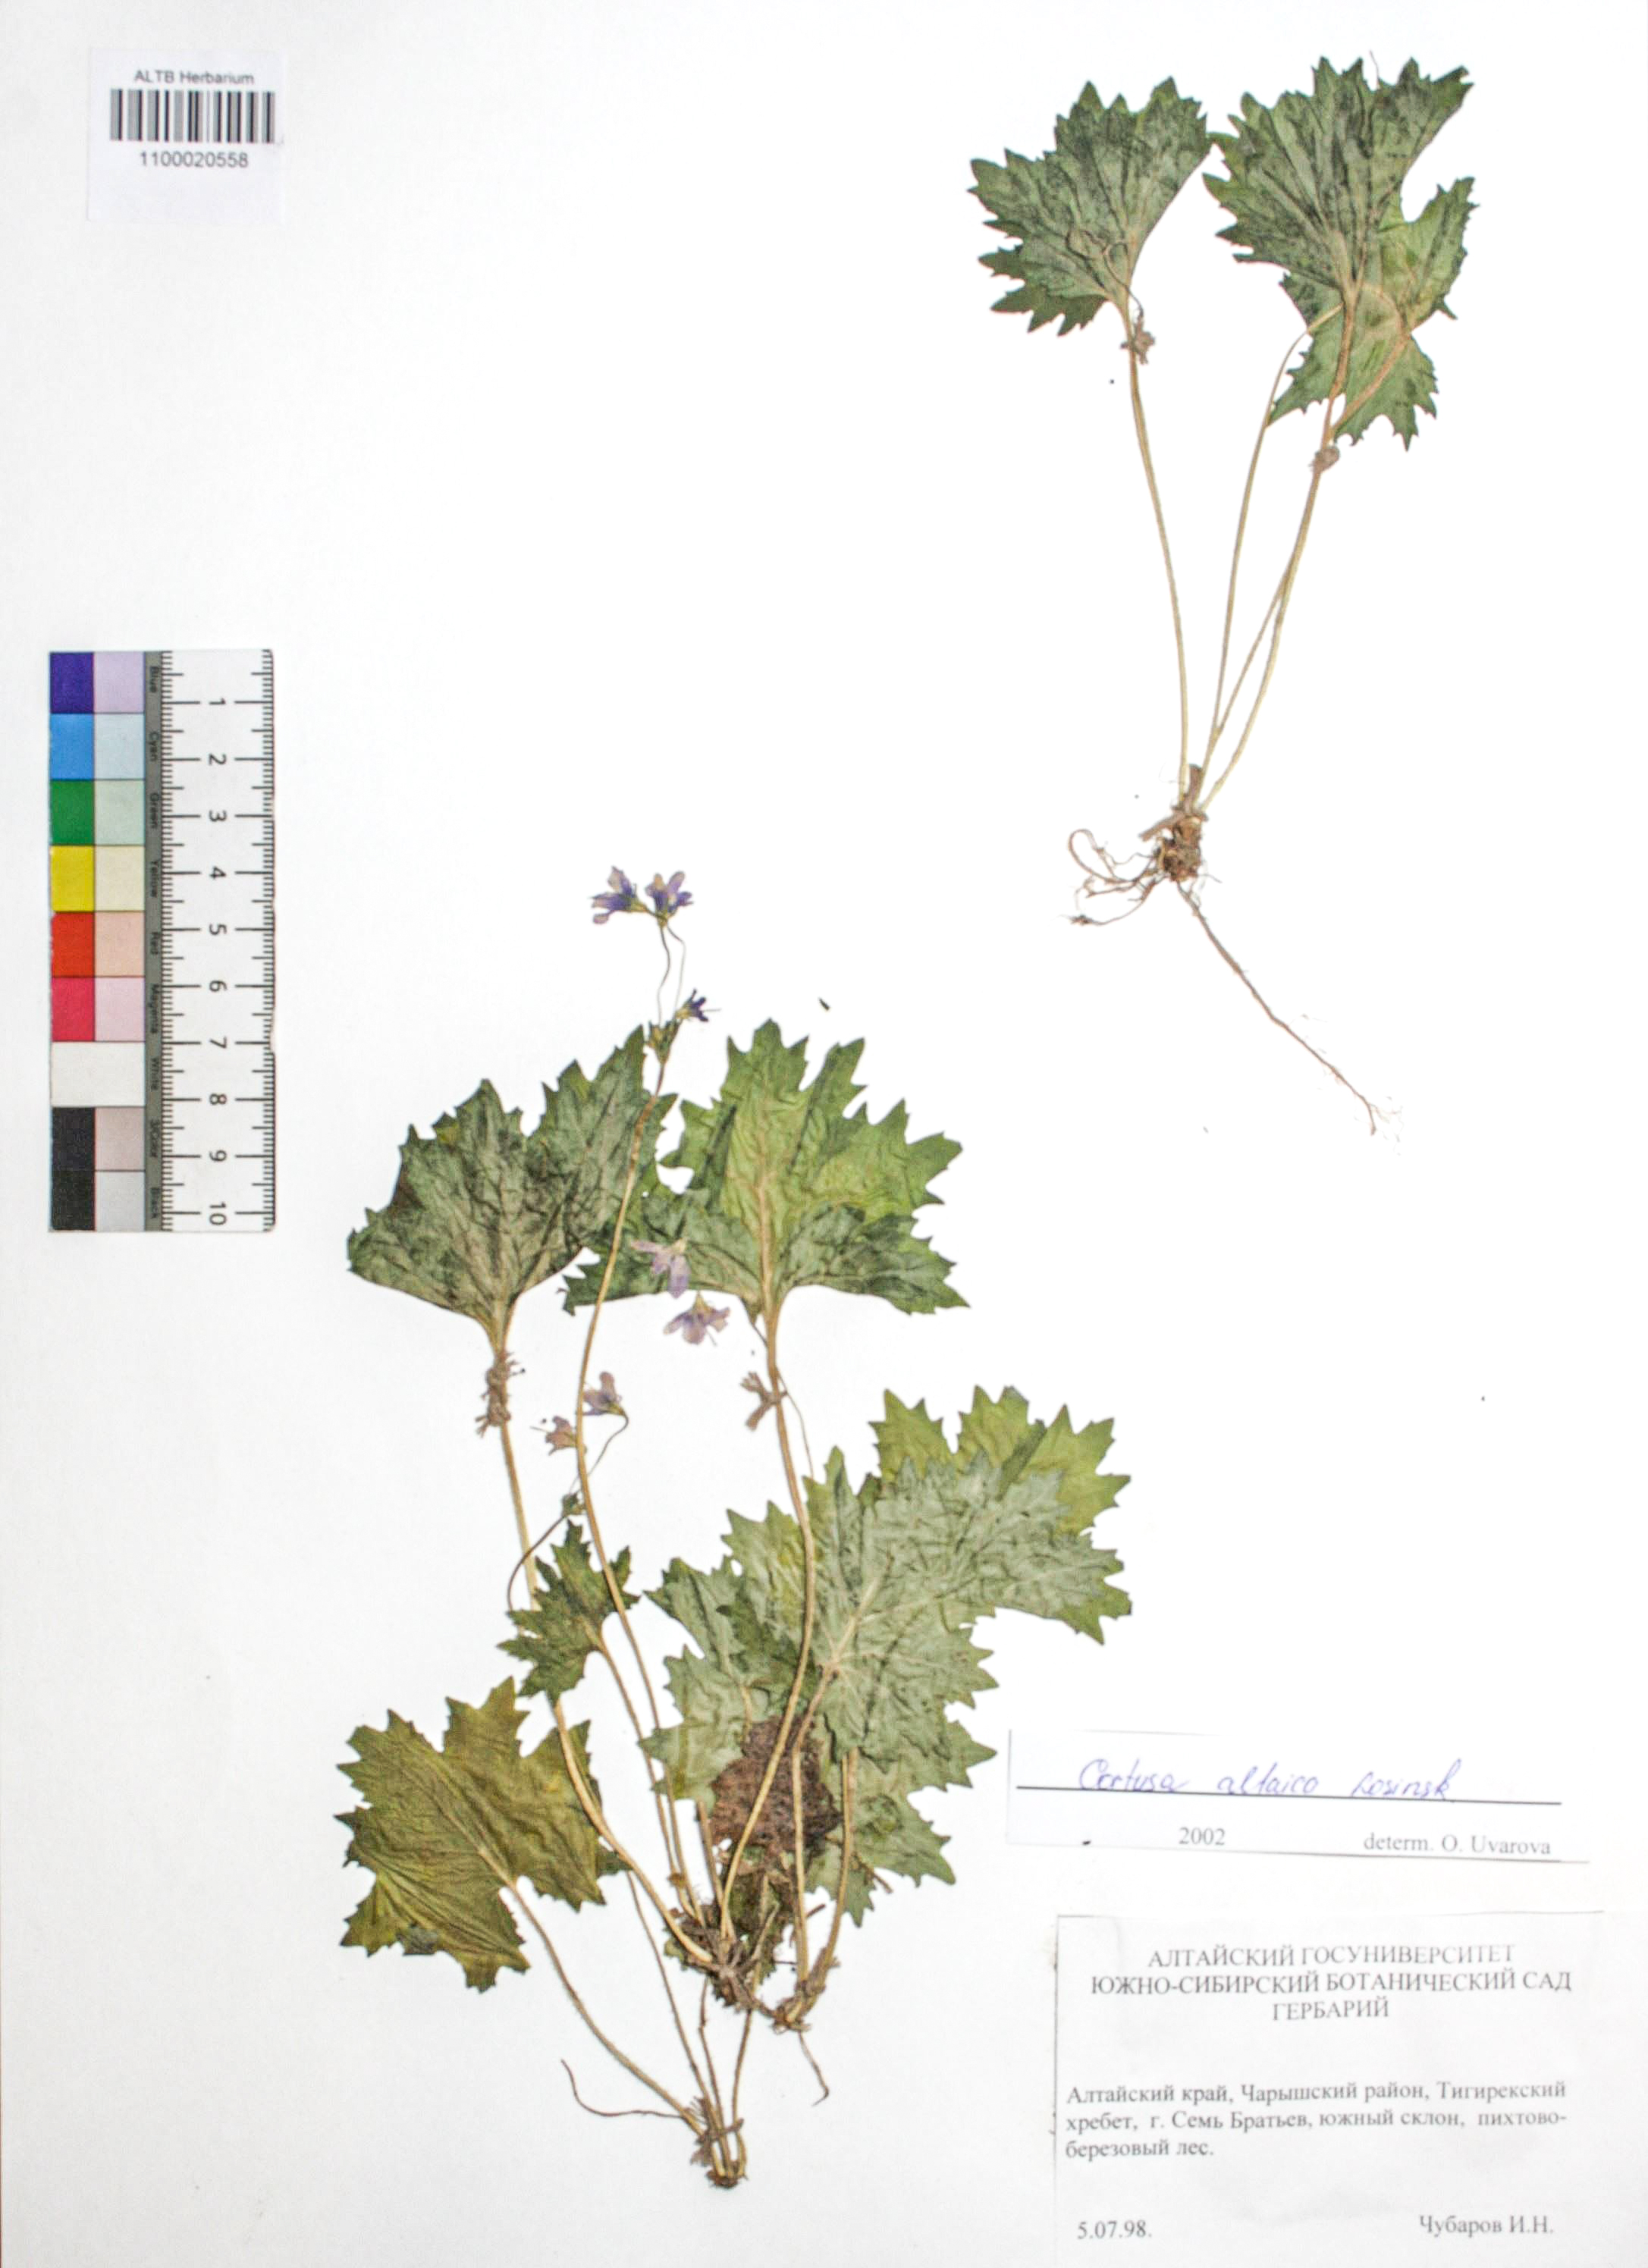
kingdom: Plantae
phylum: Tracheophyta
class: Magnoliopsida
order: Ericales
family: Primulaceae
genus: Primula
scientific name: Primula matthioli
